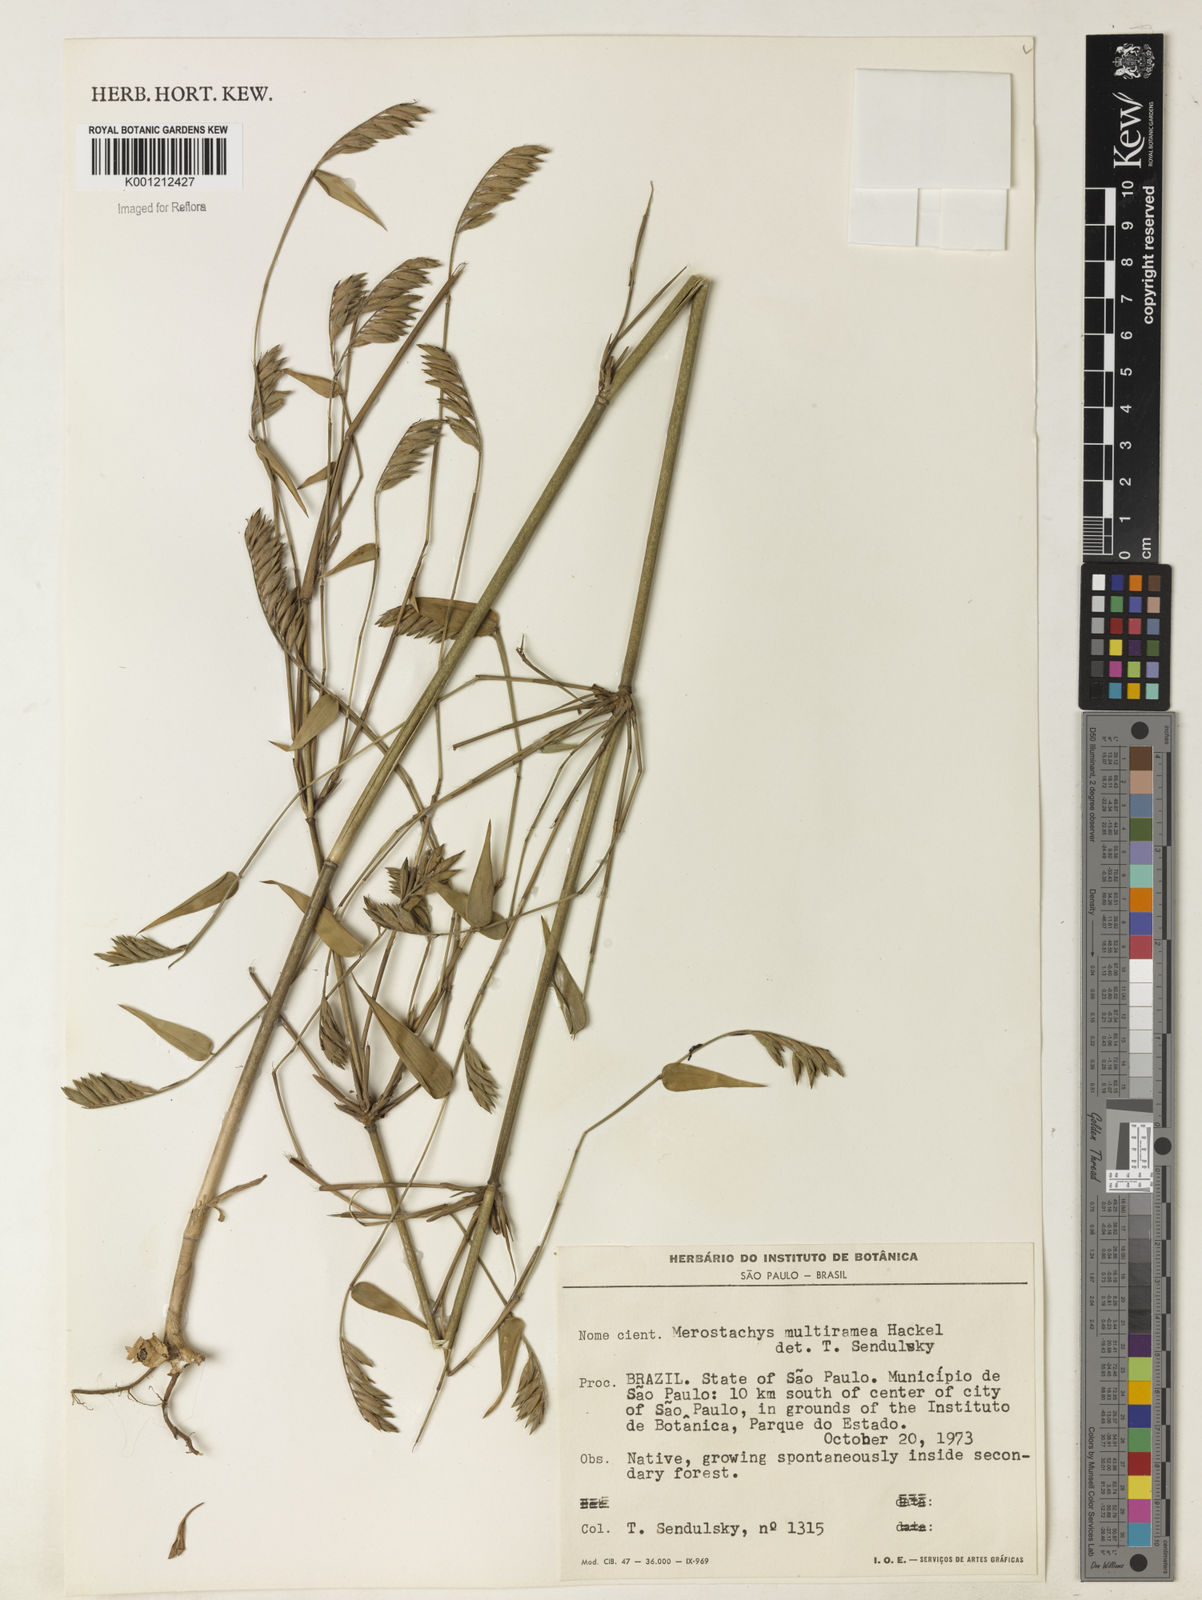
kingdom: Plantae
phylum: Tracheophyta
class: Liliopsida
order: Poales
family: Poaceae
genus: Merostachys
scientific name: Merostachys multiramea
